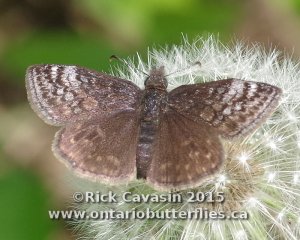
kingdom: Animalia
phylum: Arthropoda
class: Insecta
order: Lepidoptera
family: Hesperiidae
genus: Erynnis
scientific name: Erynnis icelus
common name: Dreamy Duskywing
